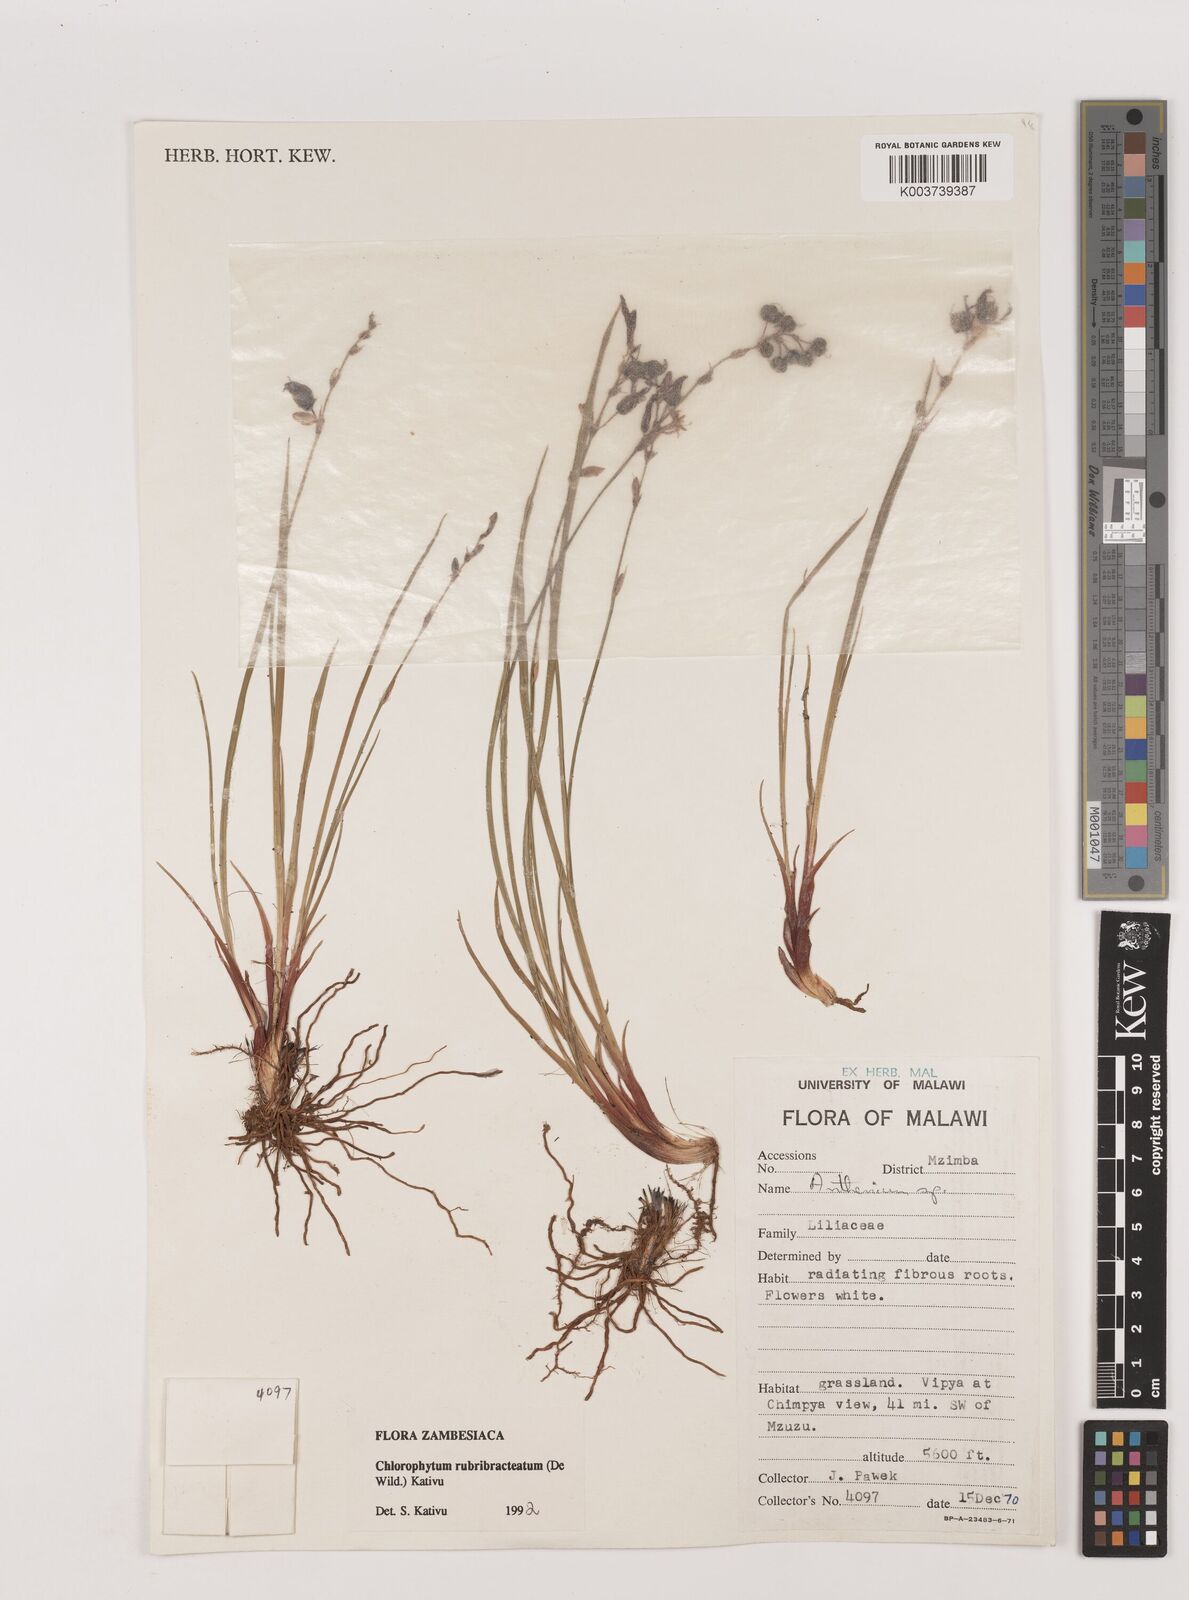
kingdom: Plantae
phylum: Tracheophyta
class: Liliopsida
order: Asparagales
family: Asparagaceae
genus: Chlorophytum
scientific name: Chlorophytum rubribracteatum
